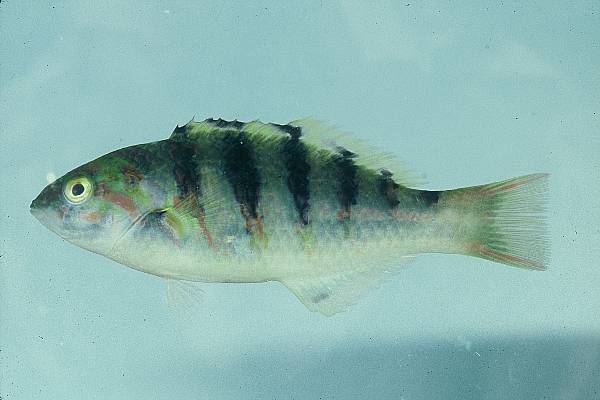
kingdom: Animalia
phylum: Chordata
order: Perciformes
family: Labridae
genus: Thalassoma
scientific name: Thalassoma hardwicke
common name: Sixbar wrasse
